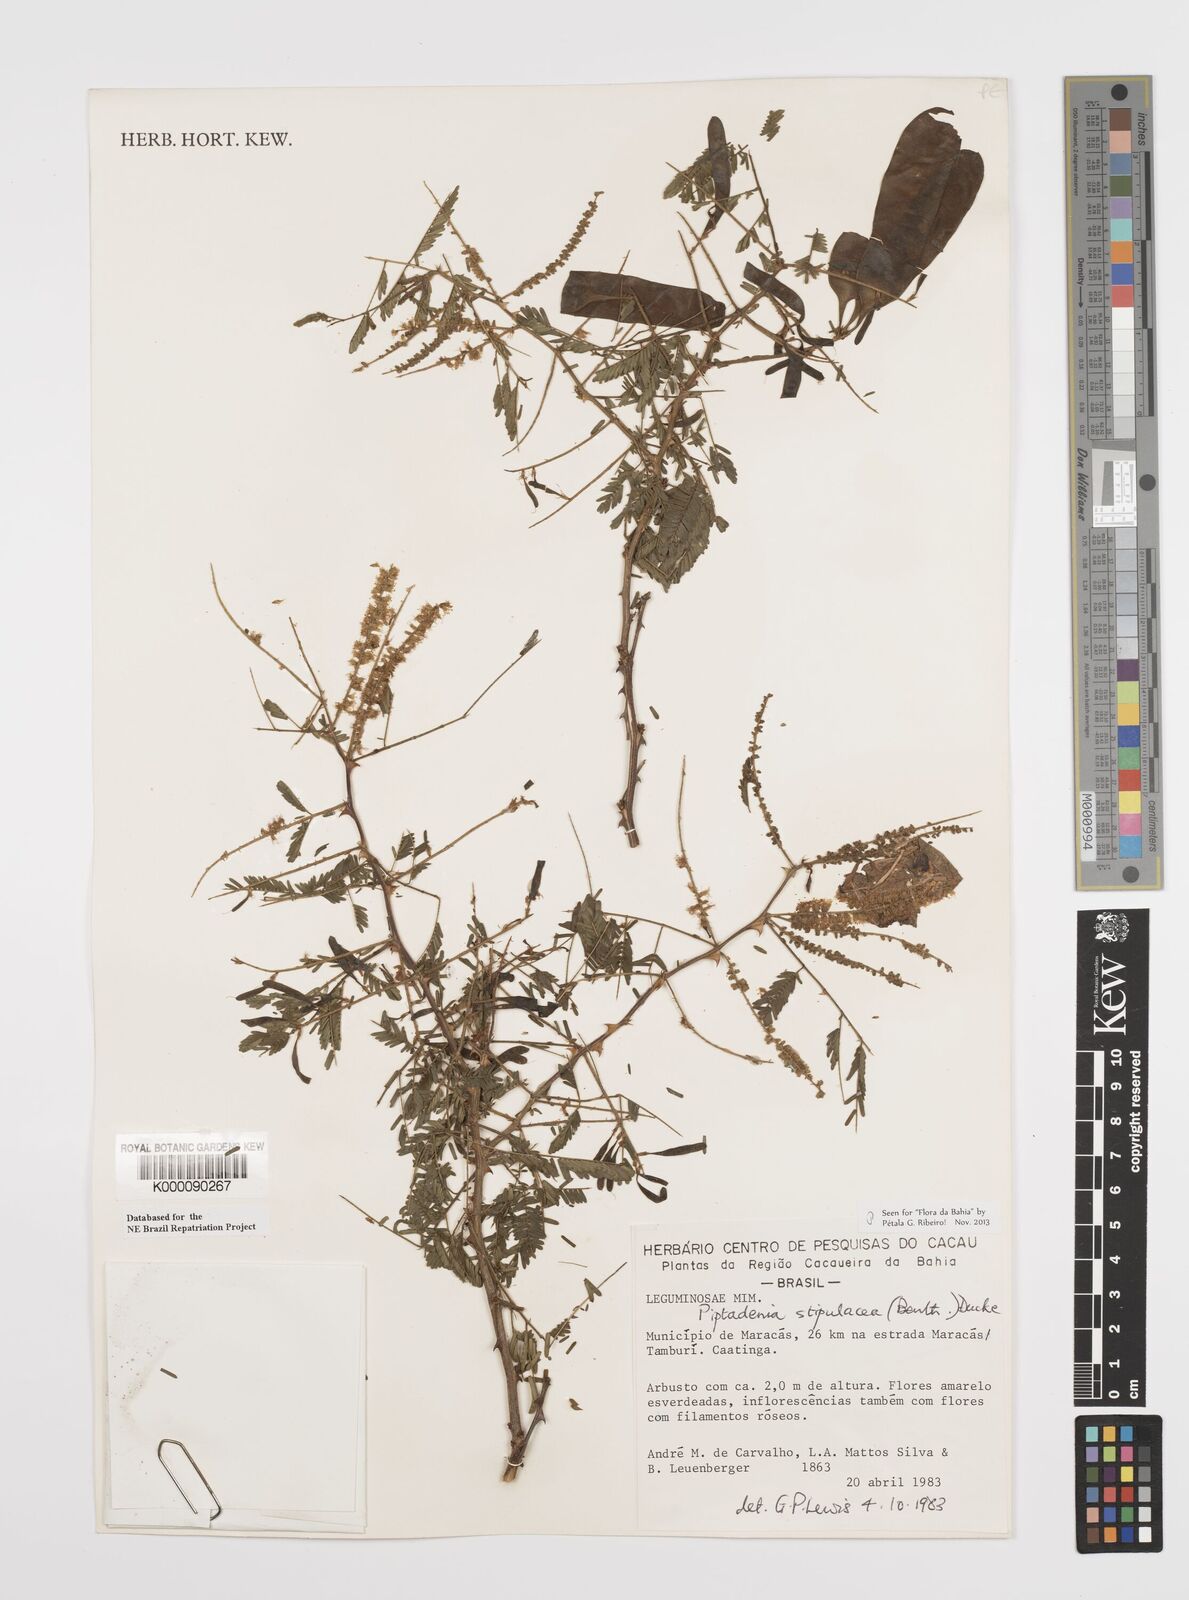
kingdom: Plantae
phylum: Tracheophyta
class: Magnoliopsida
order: Fabales
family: Fabaceae
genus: Piptadenia
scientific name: Piptadenia retusa
